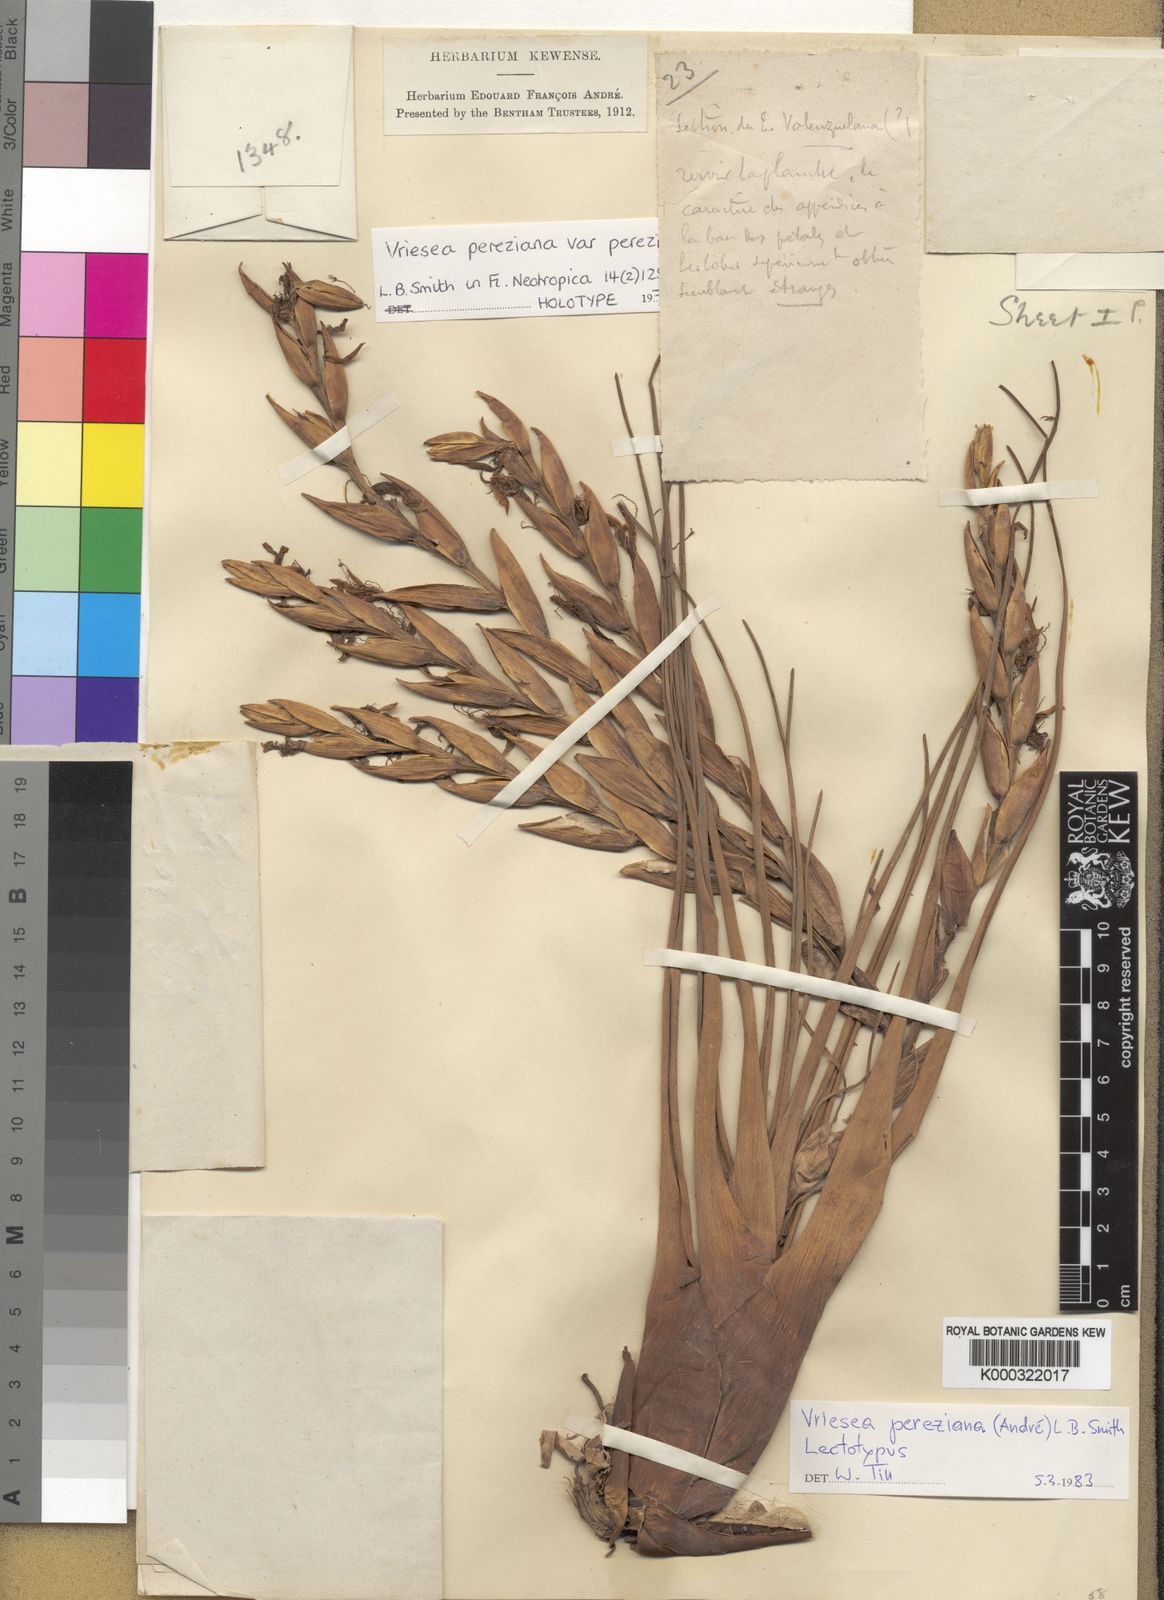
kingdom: Plantae
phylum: Tracheophyta
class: Liliopsida
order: Poales
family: Bromeliaceae
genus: Vriesea
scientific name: Vriesea pereziana
